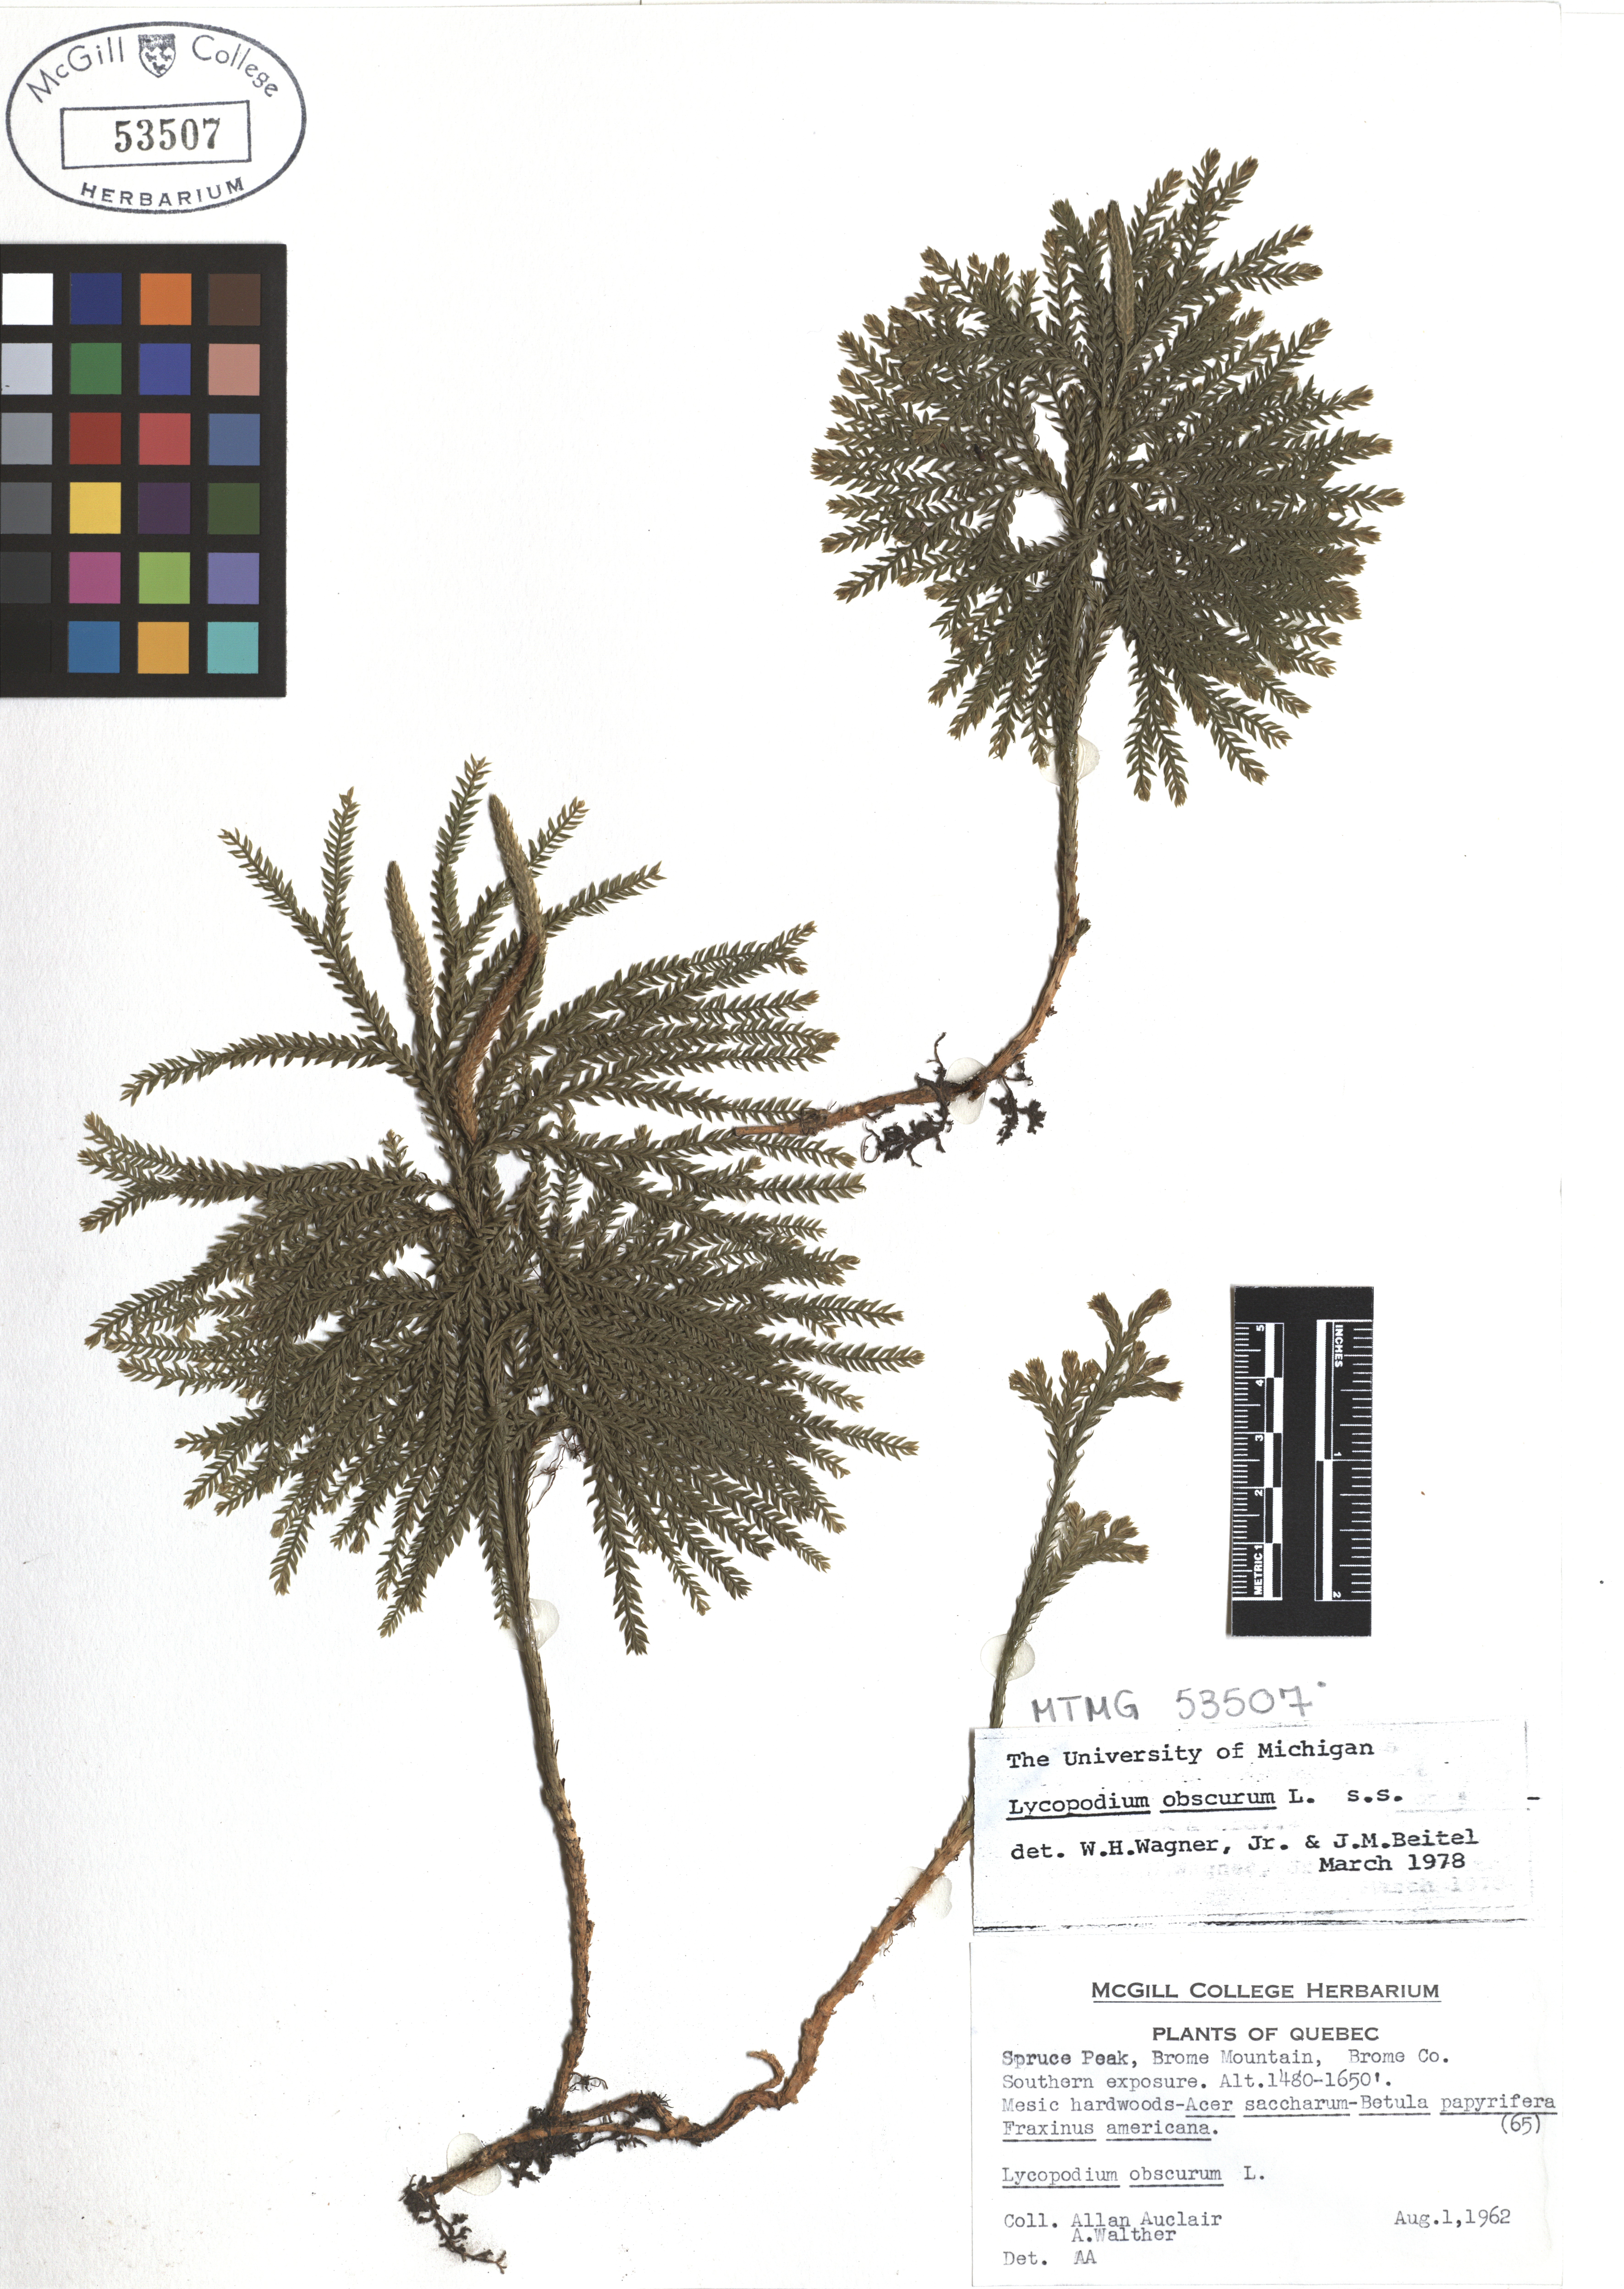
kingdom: Plantae
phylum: Tracheophyta
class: Lycopodiopsida
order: Lycopodiales
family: Lycopodiaceae
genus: Dendrolycopodium
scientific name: Dendrolycopodium obscurum
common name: Common ground-pine
